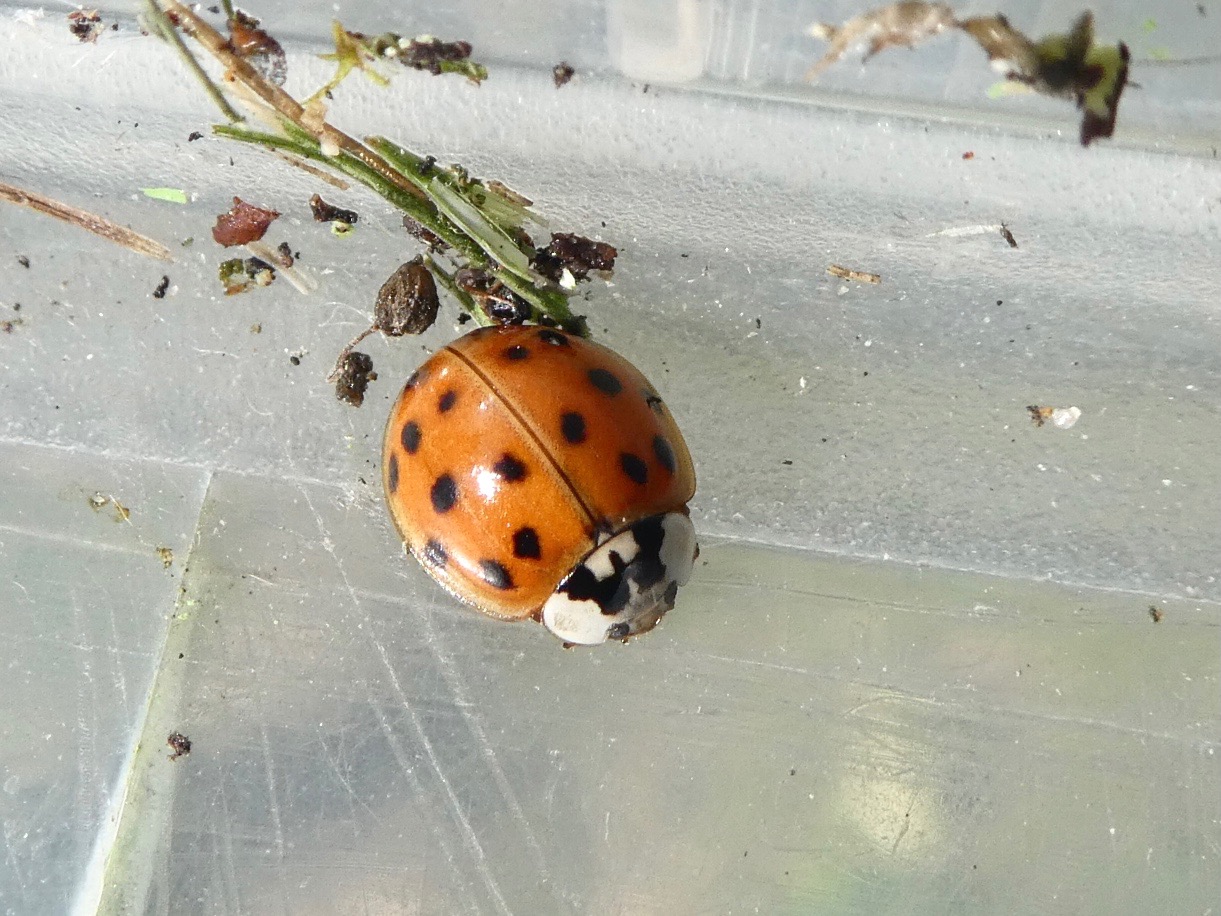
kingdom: Animalia
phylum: Arthropoda
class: Insecta
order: Coleoptera
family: Coccinellidae
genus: Harmonia
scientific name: Harmonia axyridis
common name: Harlekinmariehøne
